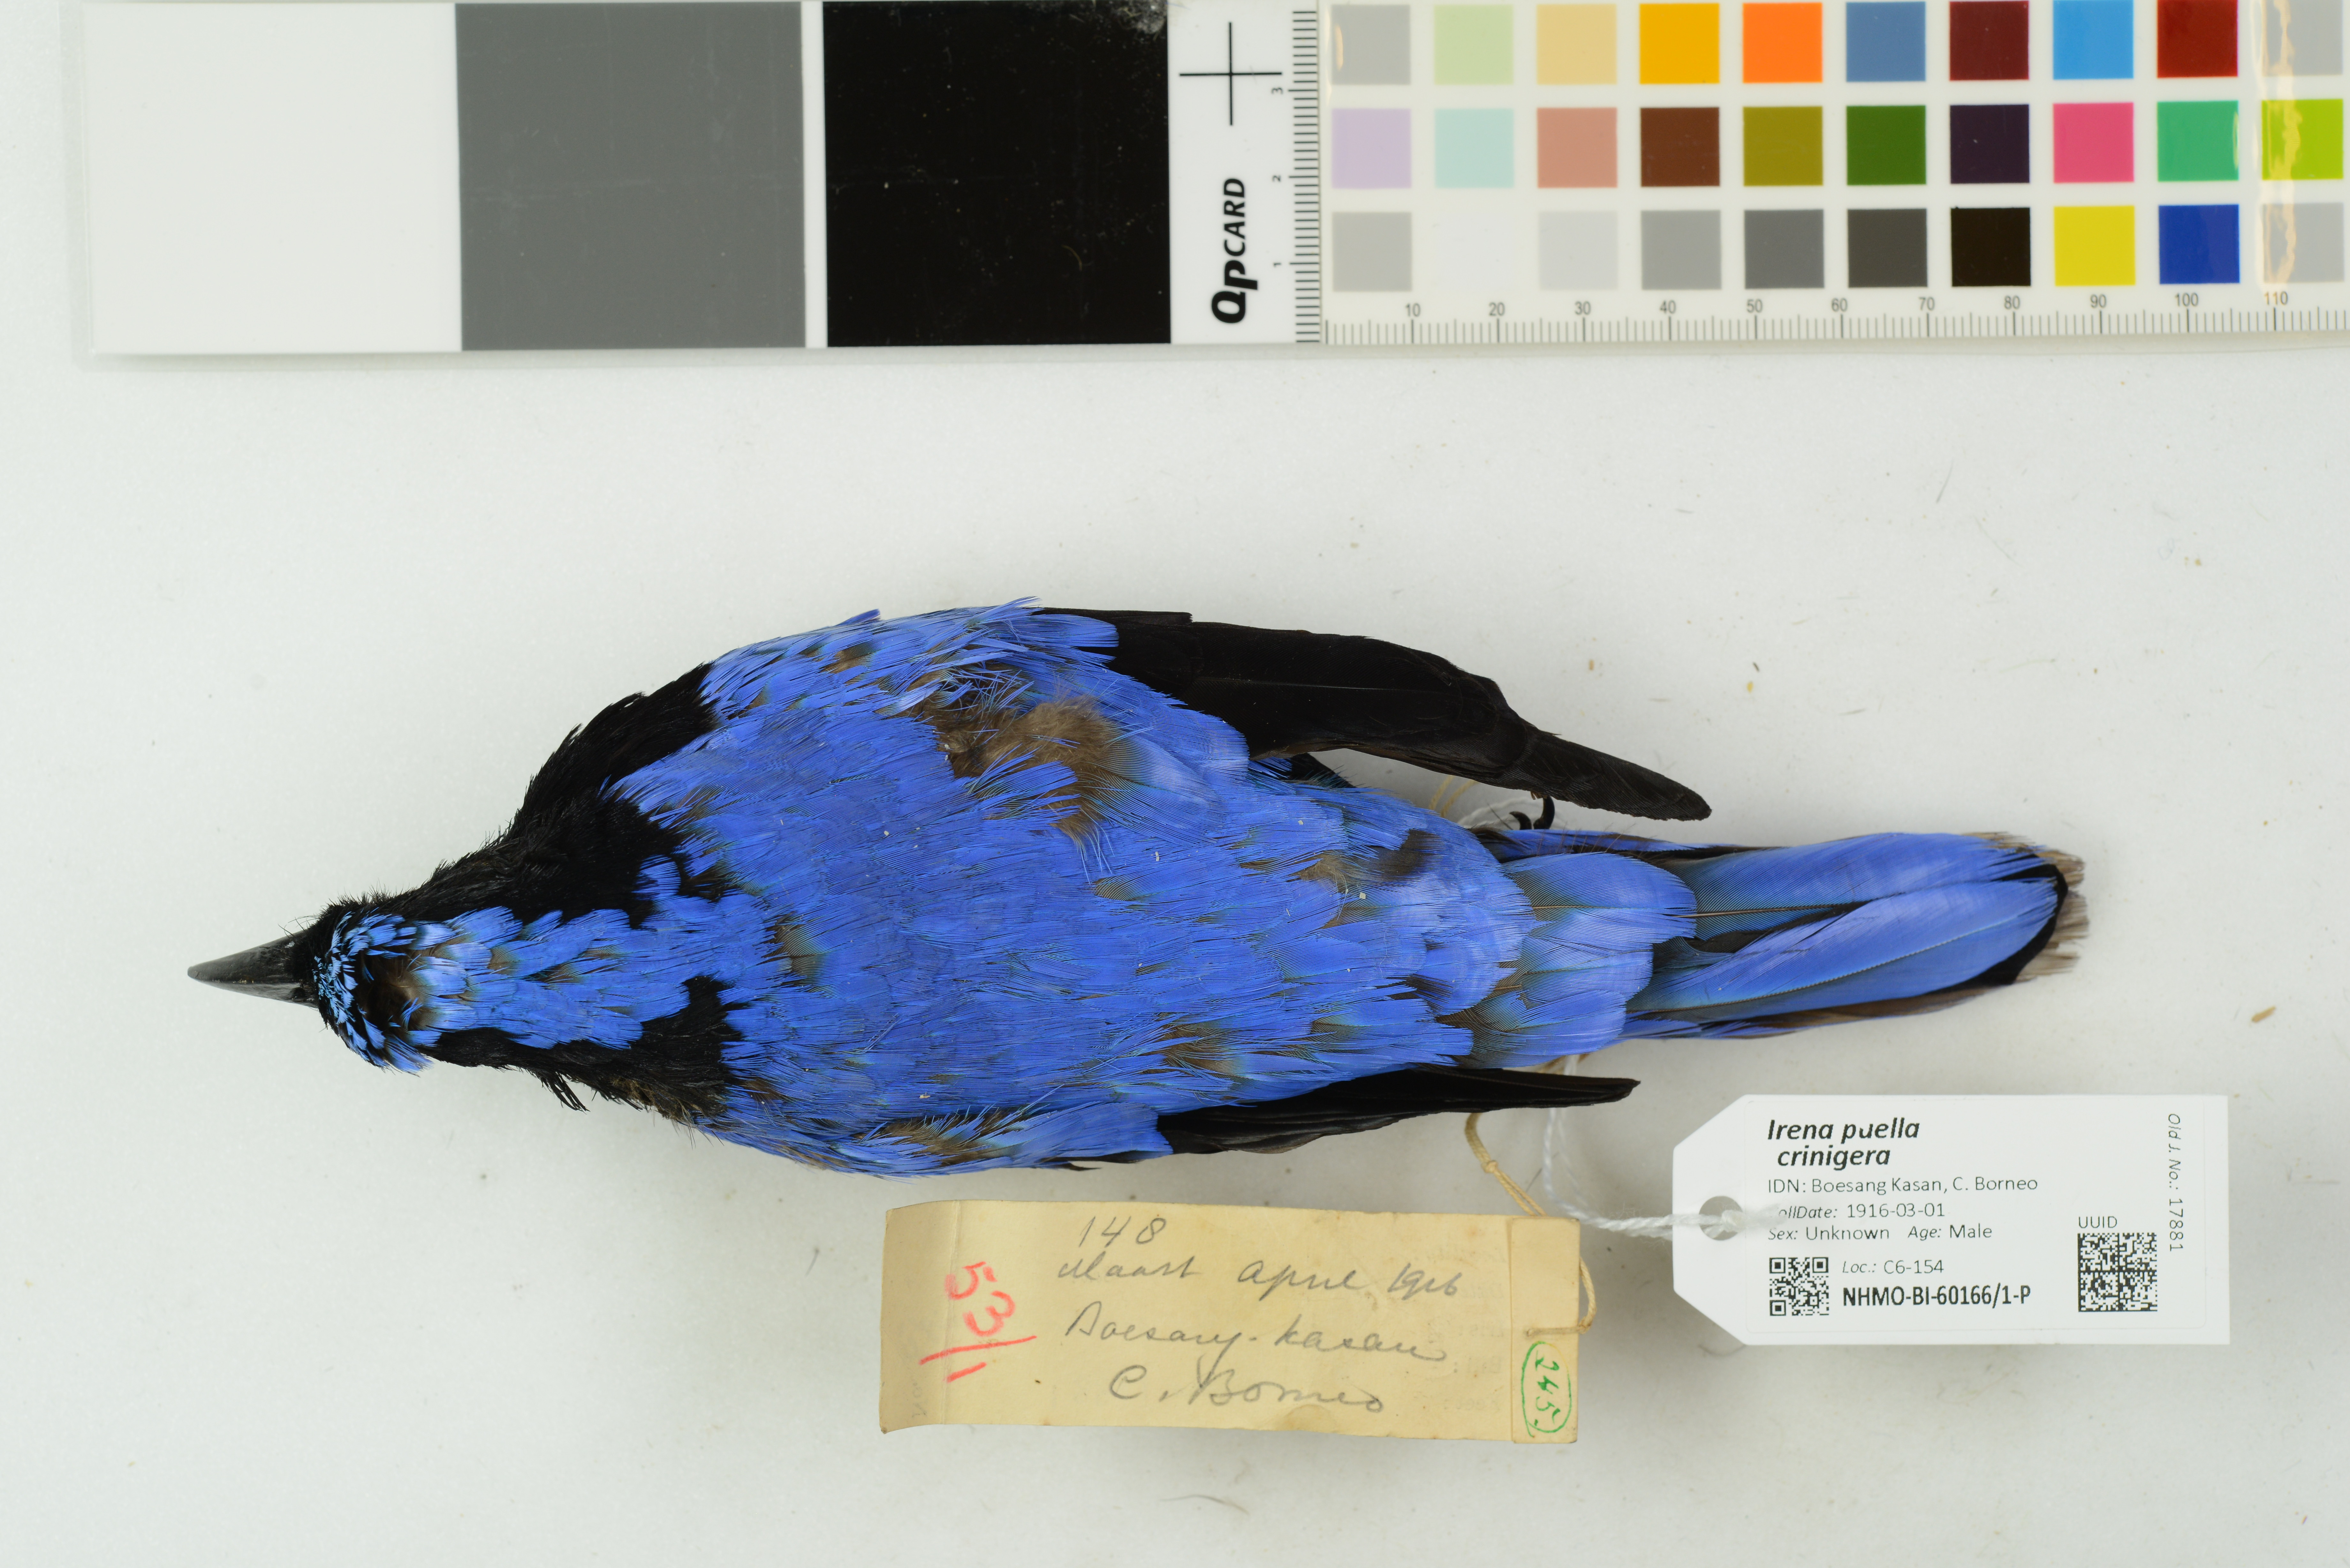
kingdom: Animalia
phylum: Chordata
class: Aves
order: Passeriformes
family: Irenidae
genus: Irena
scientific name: Irena puella
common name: Asian fairy-bluebird
